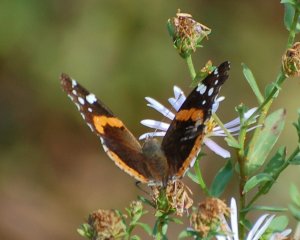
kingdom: Animalia
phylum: Arthropoda
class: Insecta
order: Lepidoptera
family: Nymphalidae
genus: Vanessa
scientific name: Vanessa atalanta
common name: Red Admiral
